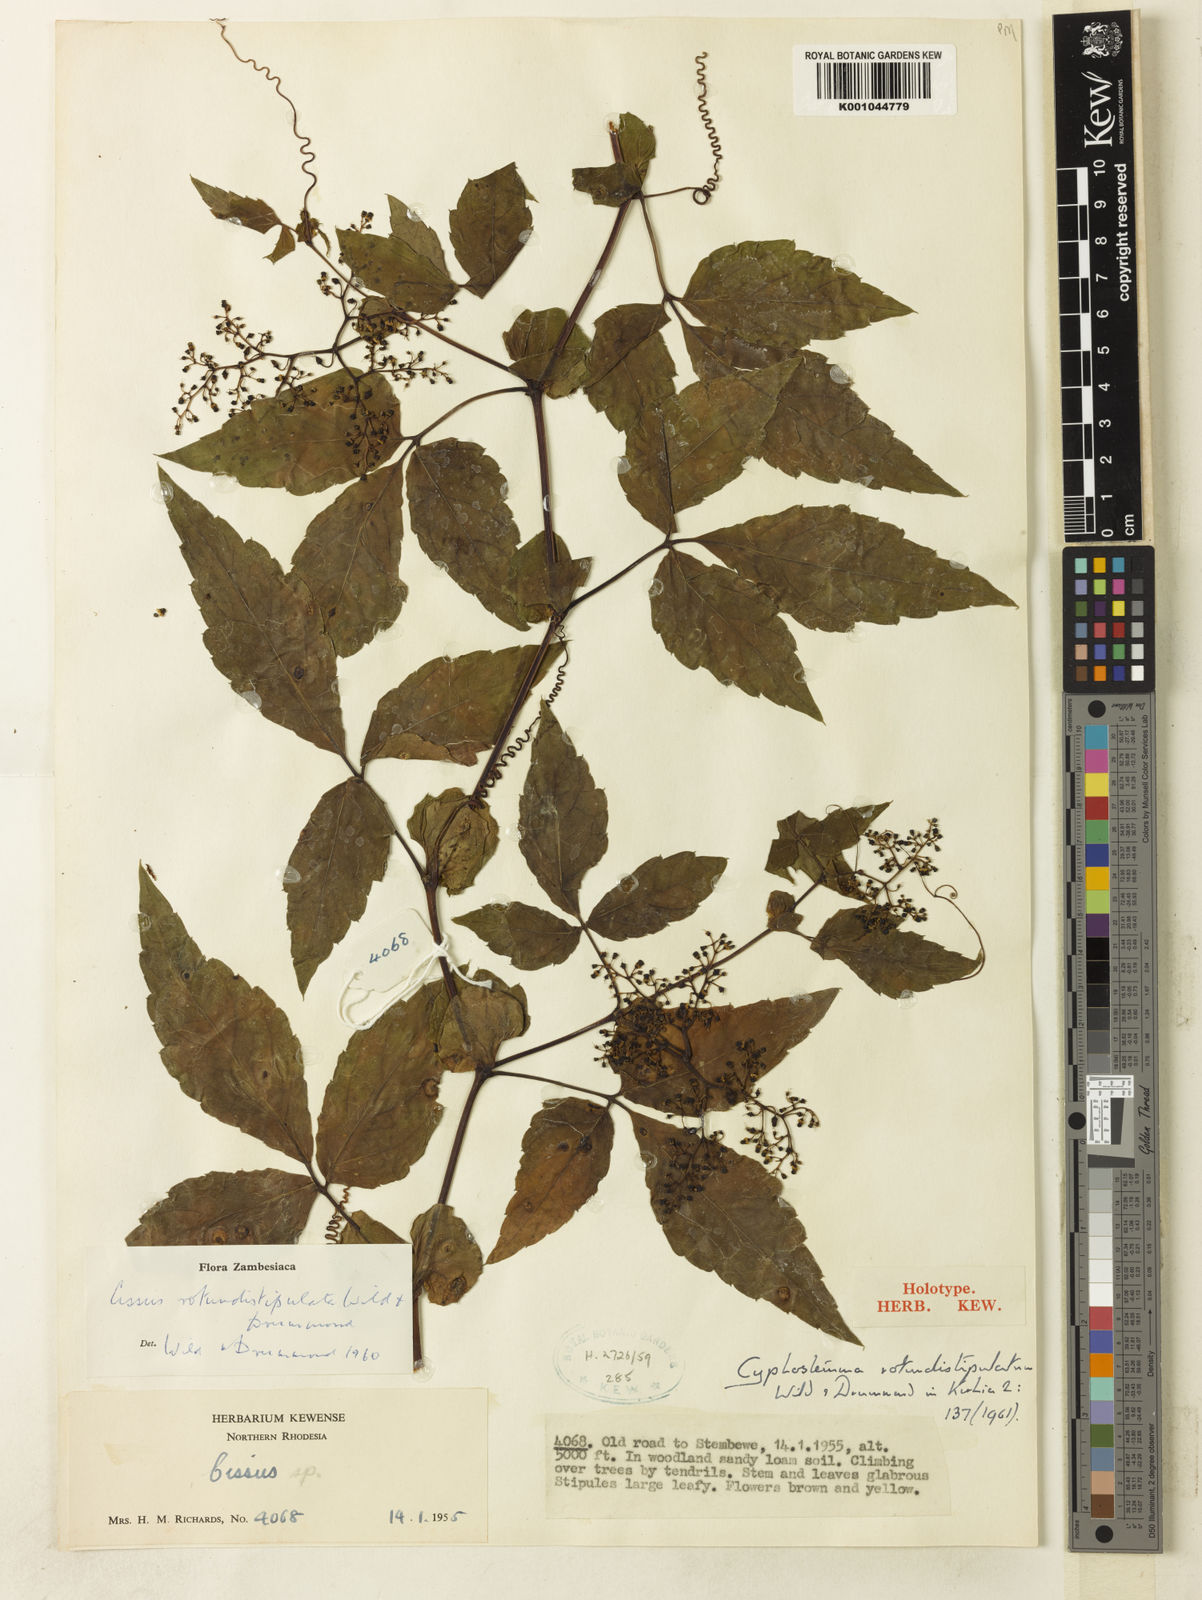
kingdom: Plantae
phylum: Tracheophyta
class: Magnoliopsida
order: Vitales
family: Vitaceae
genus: Cyphostemma
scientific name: Cyphostemma rotundistipulatum
